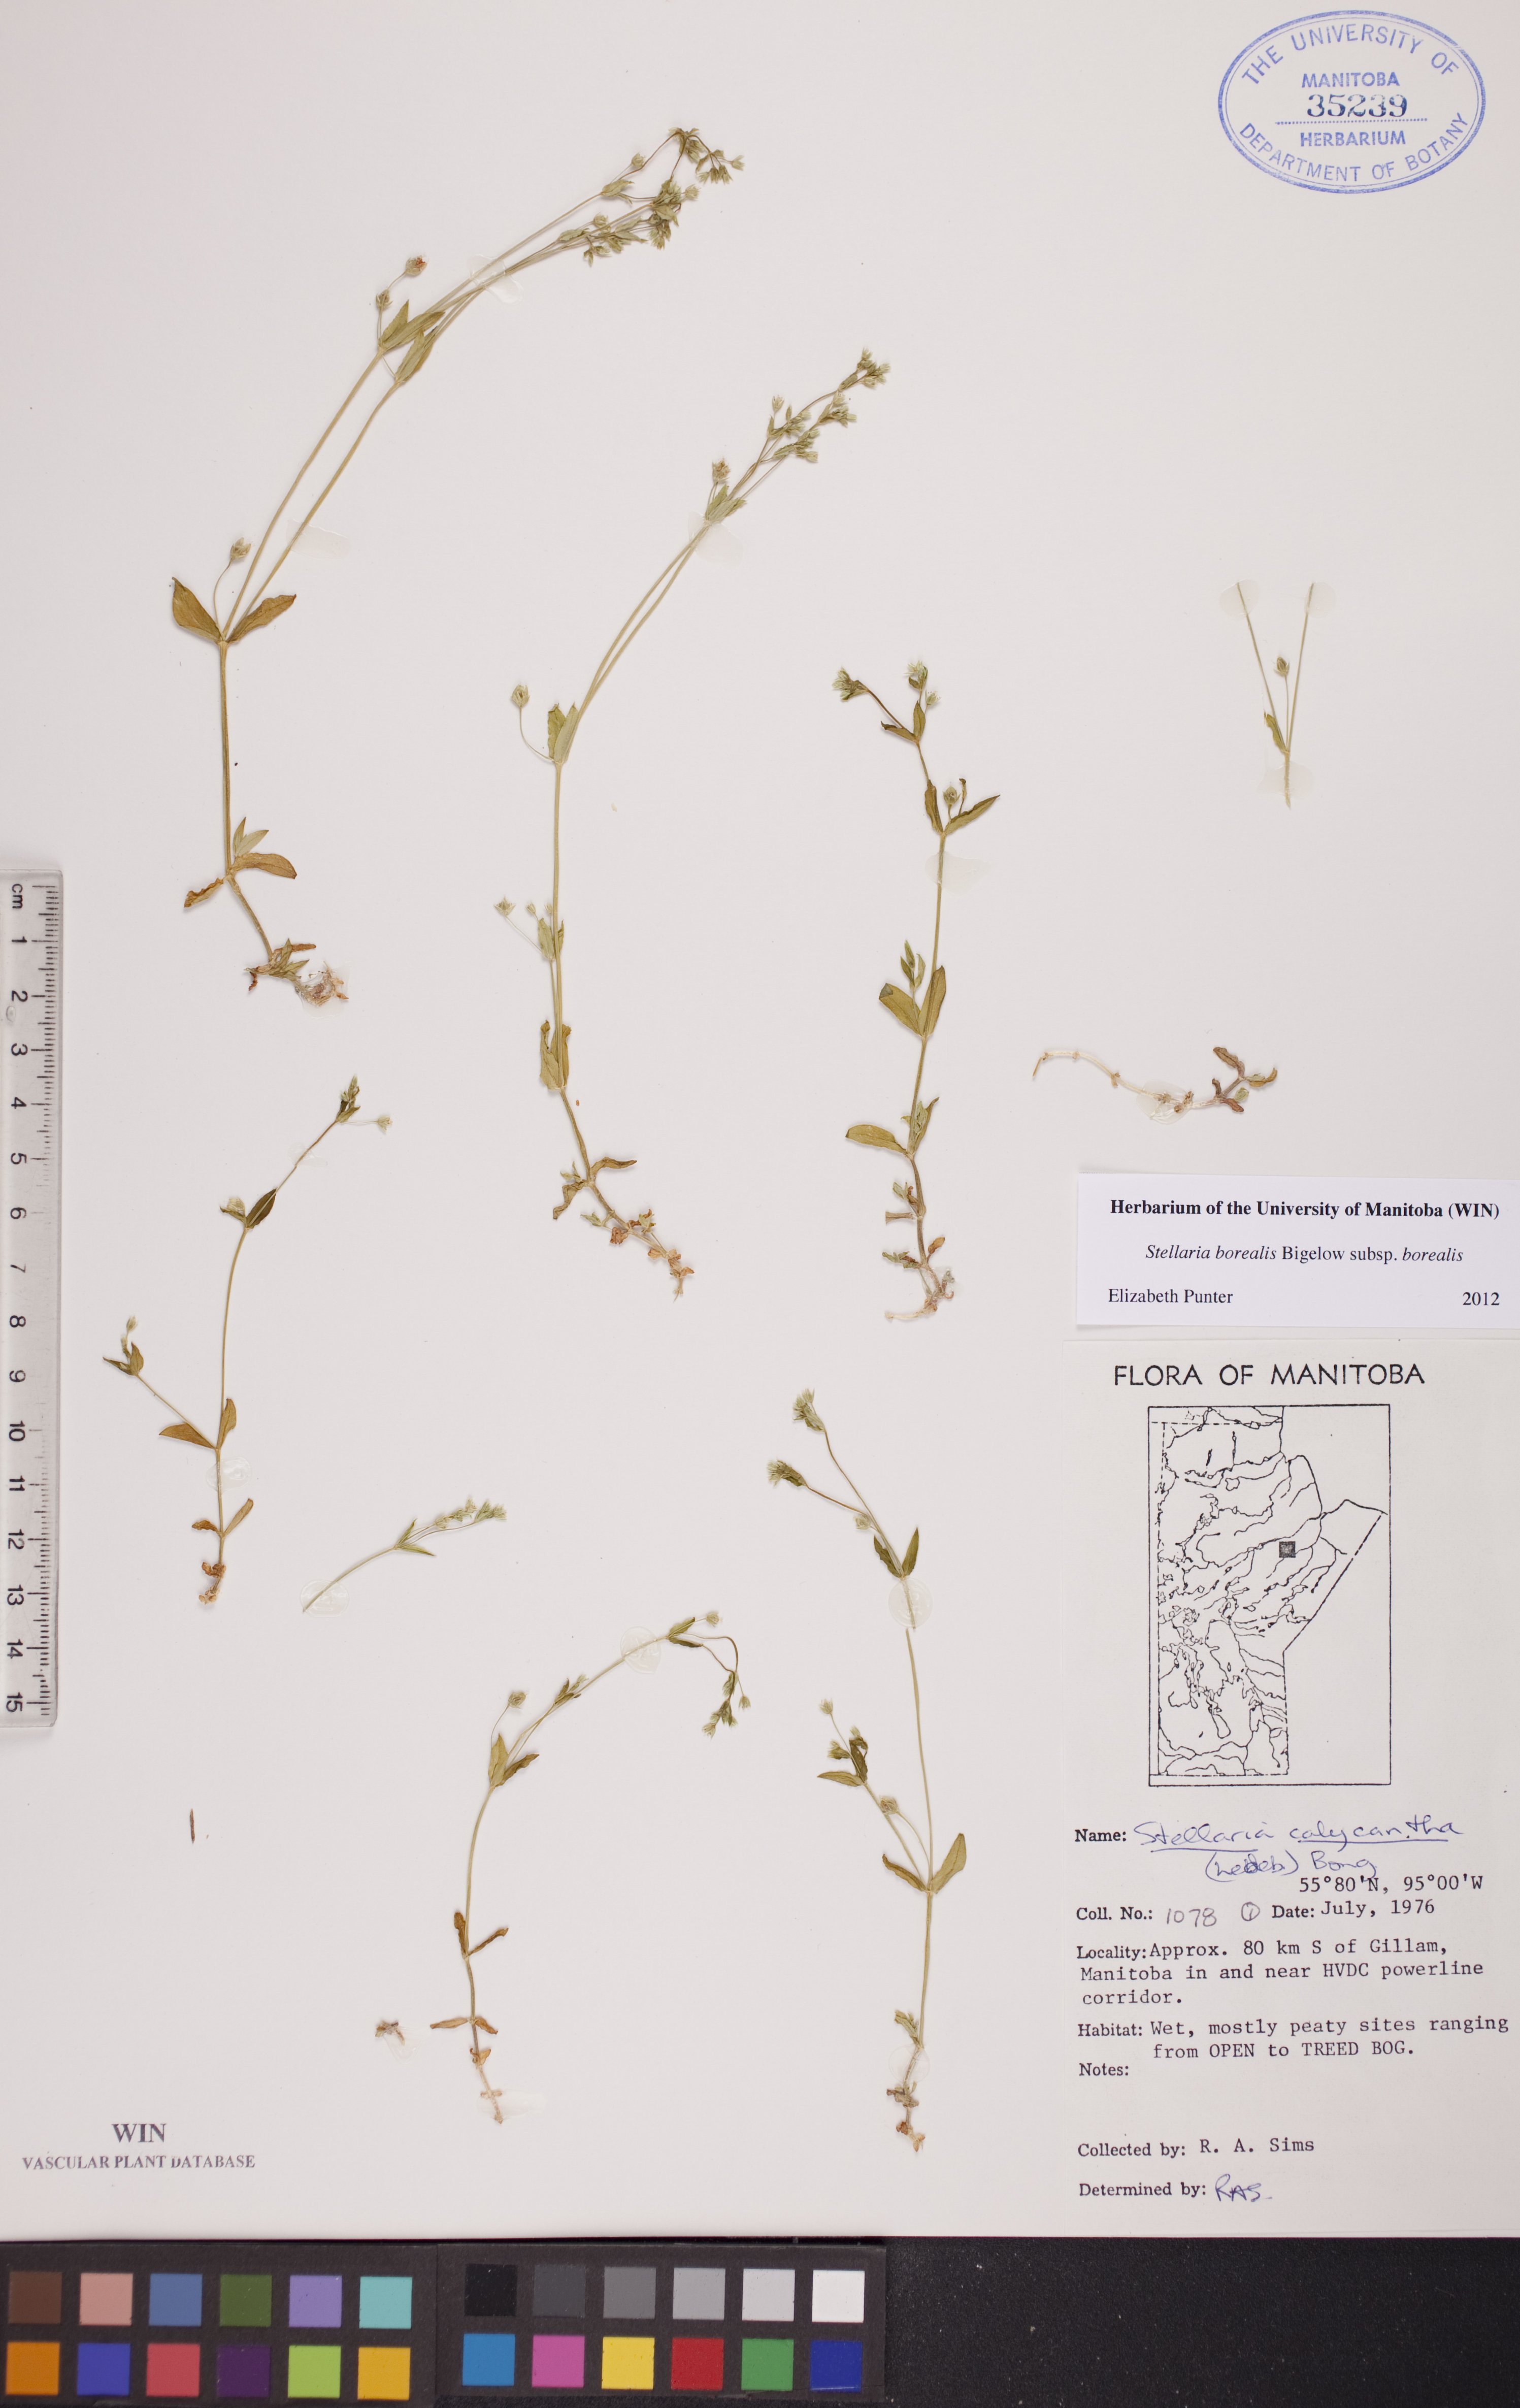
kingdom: Plantae
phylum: Tracheophyta
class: Magnoliopsida
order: Caryophyllales
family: Caryophyllaceae
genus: Stellaria
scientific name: Stellaria borealis
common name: Boreal starwort
